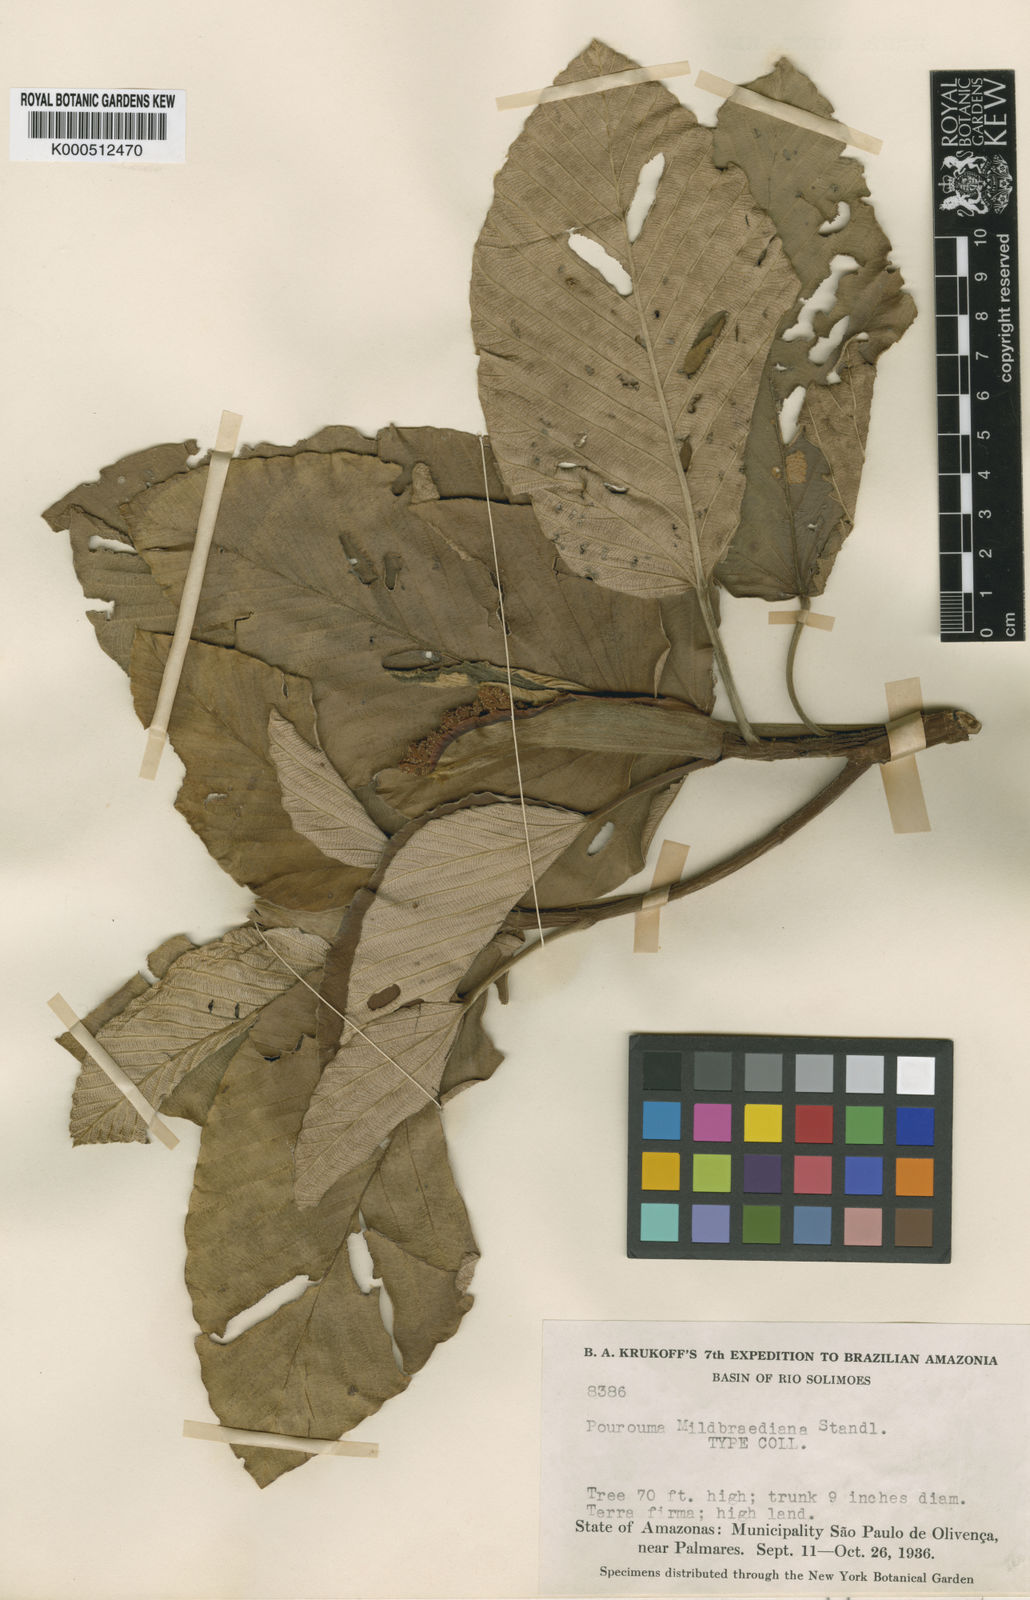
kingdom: Plantae
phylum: Tracheophyta
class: Magnoliopsida
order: Rosales
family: Urticaceae
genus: Pourouma
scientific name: Pourouma
